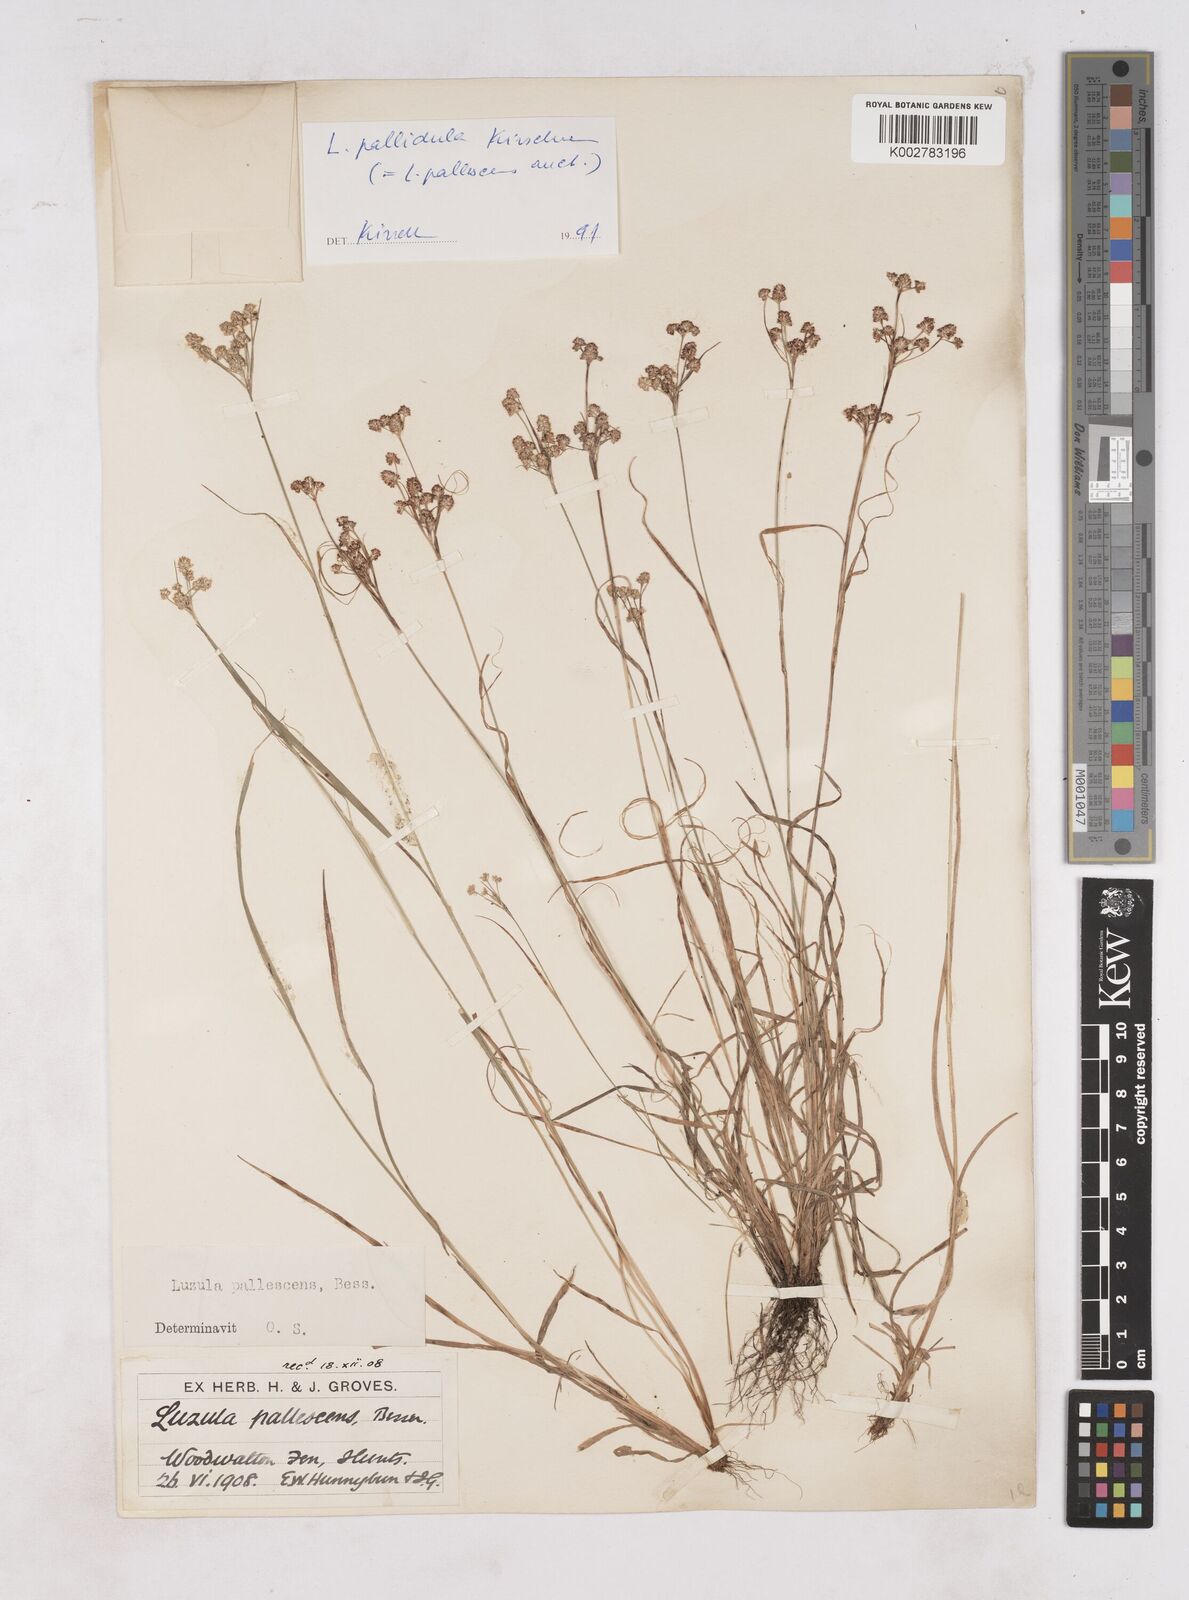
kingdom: Plantae
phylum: Tracheophyta
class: Liliopsida
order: Poales
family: Juncaceae
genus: Luzula
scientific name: Luzula pallescens
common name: Fen wood-rush
